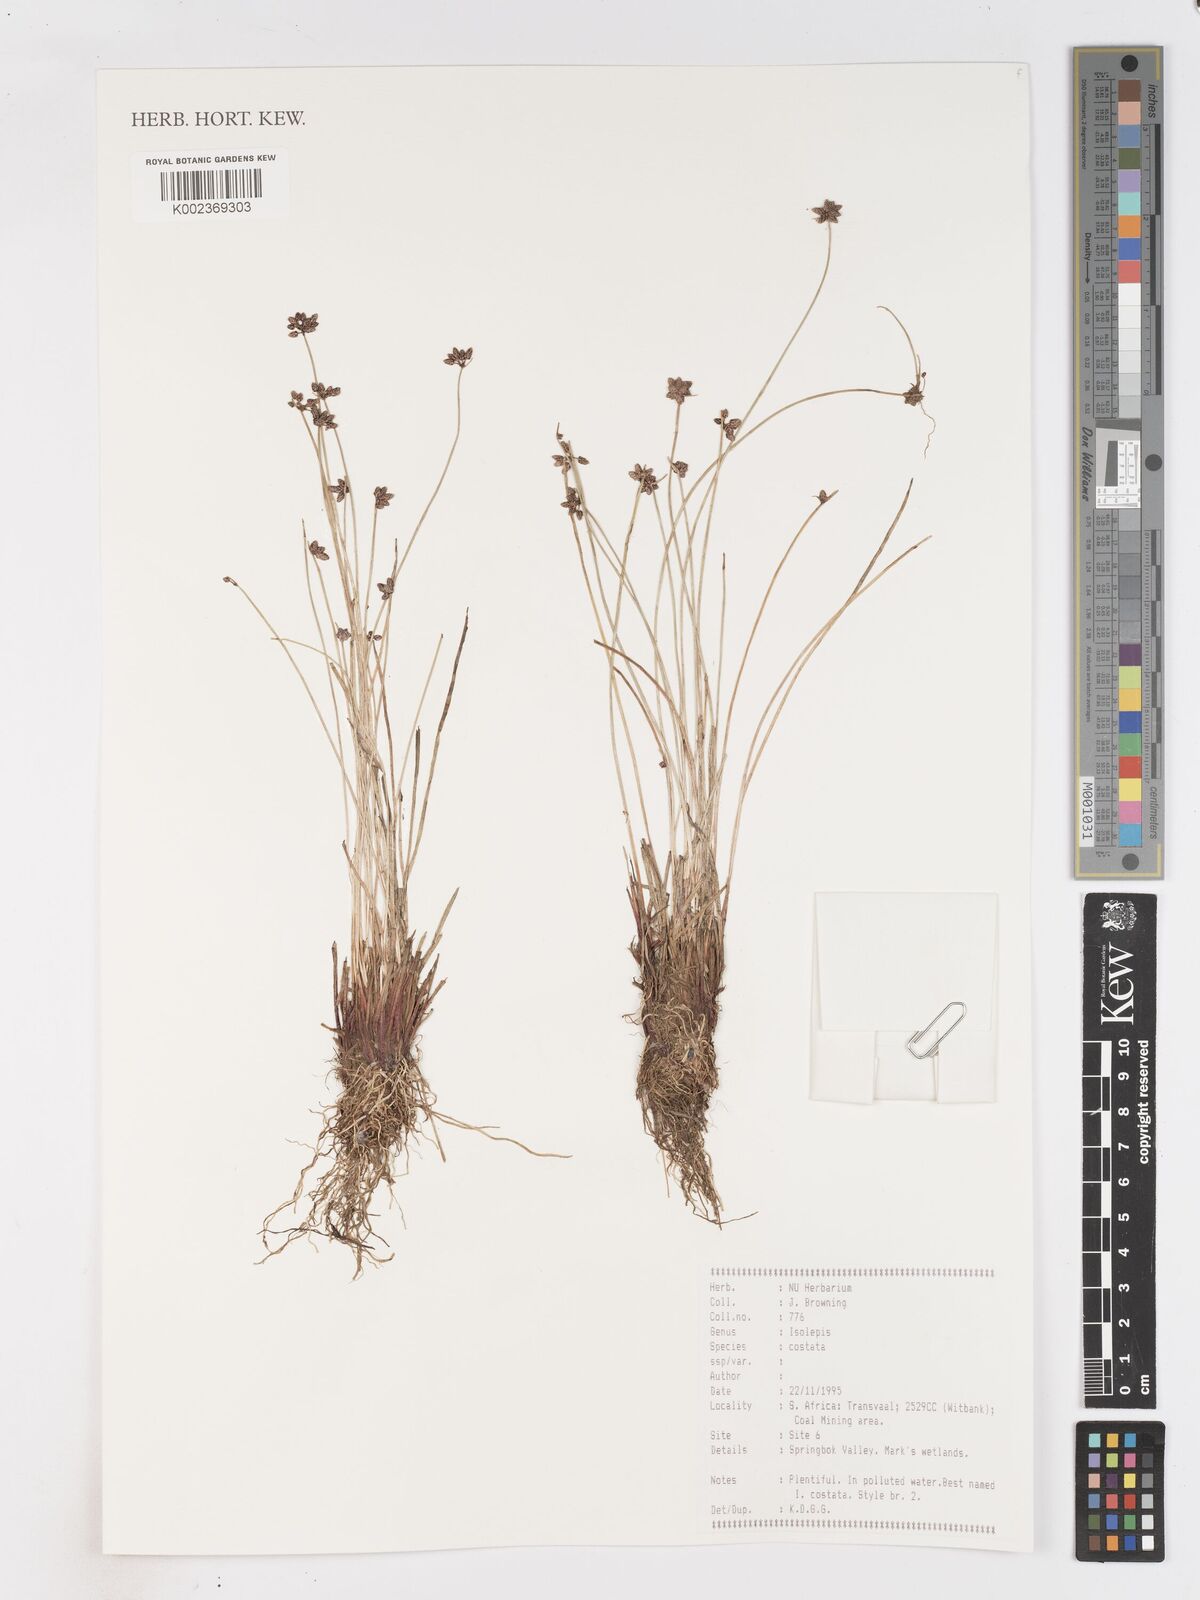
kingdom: Plantae
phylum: Tracheophyta
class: Liliopsida
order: Poales
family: Cyperaceae
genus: Isolepis
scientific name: Isolepis costata
